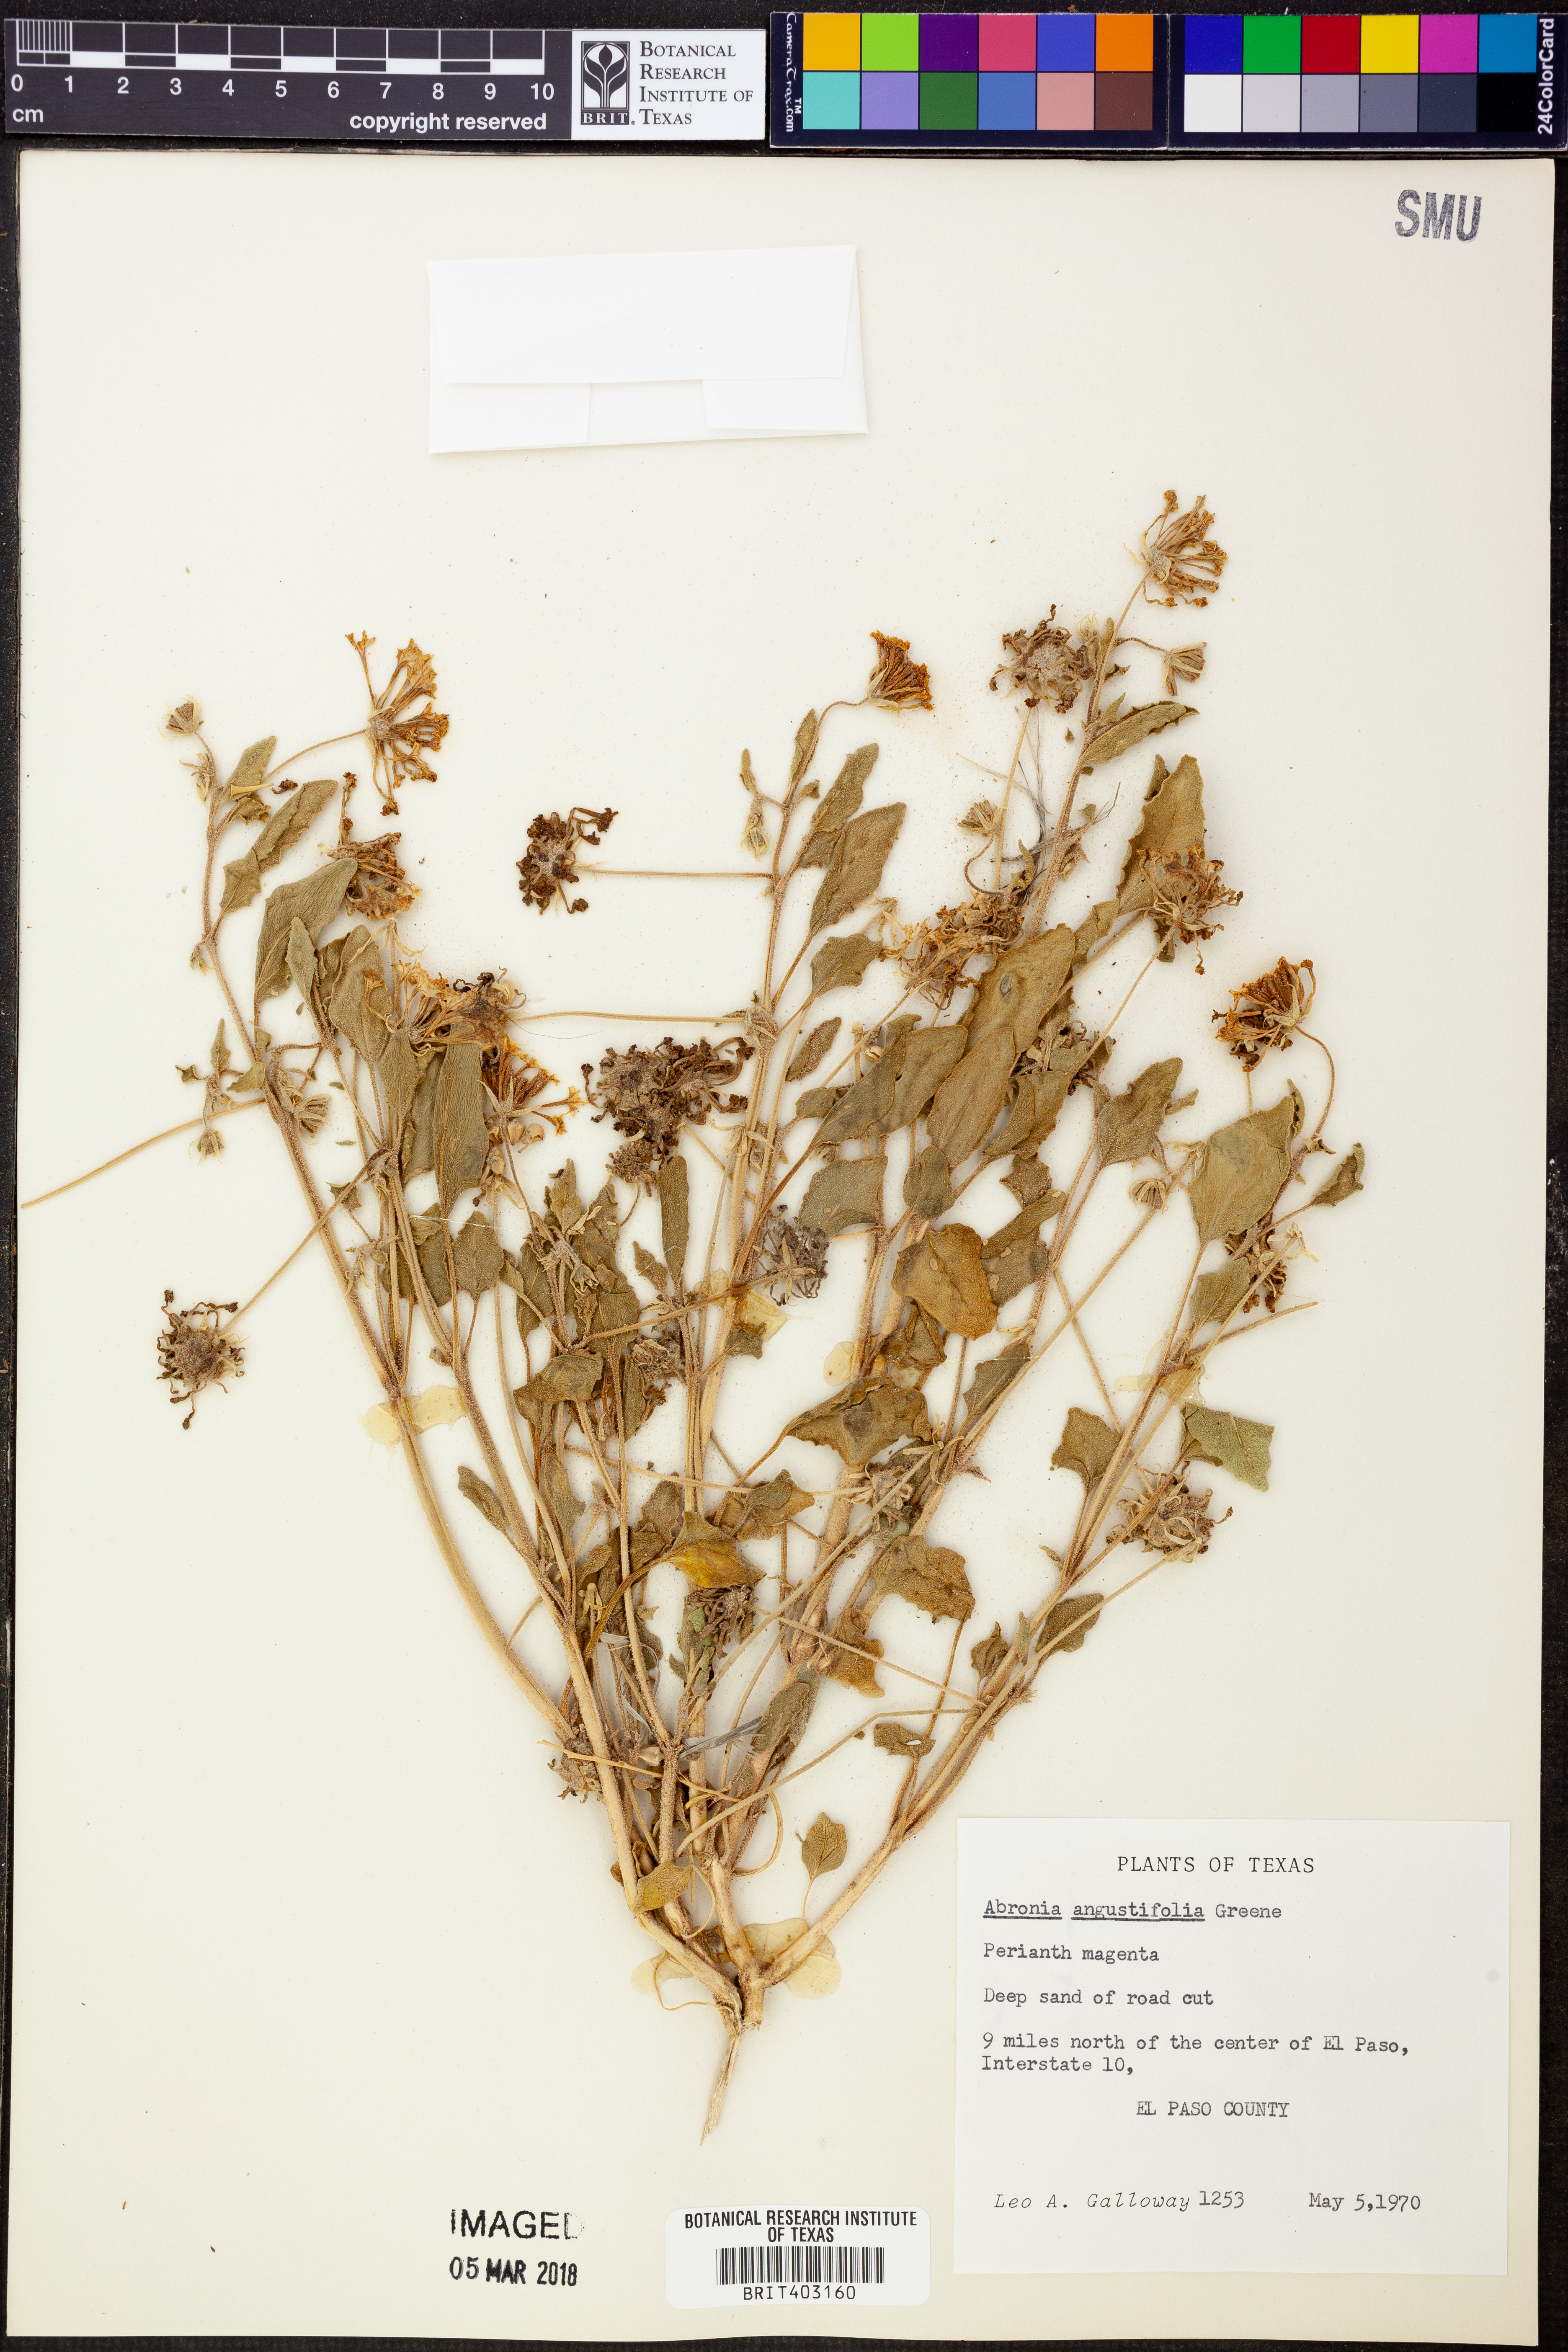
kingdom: Plantae
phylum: Tracheophyta
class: Magnoliopsida
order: Caryophyllales
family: Nyctaginaceae
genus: Abronia
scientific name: Abronia angustifolia
